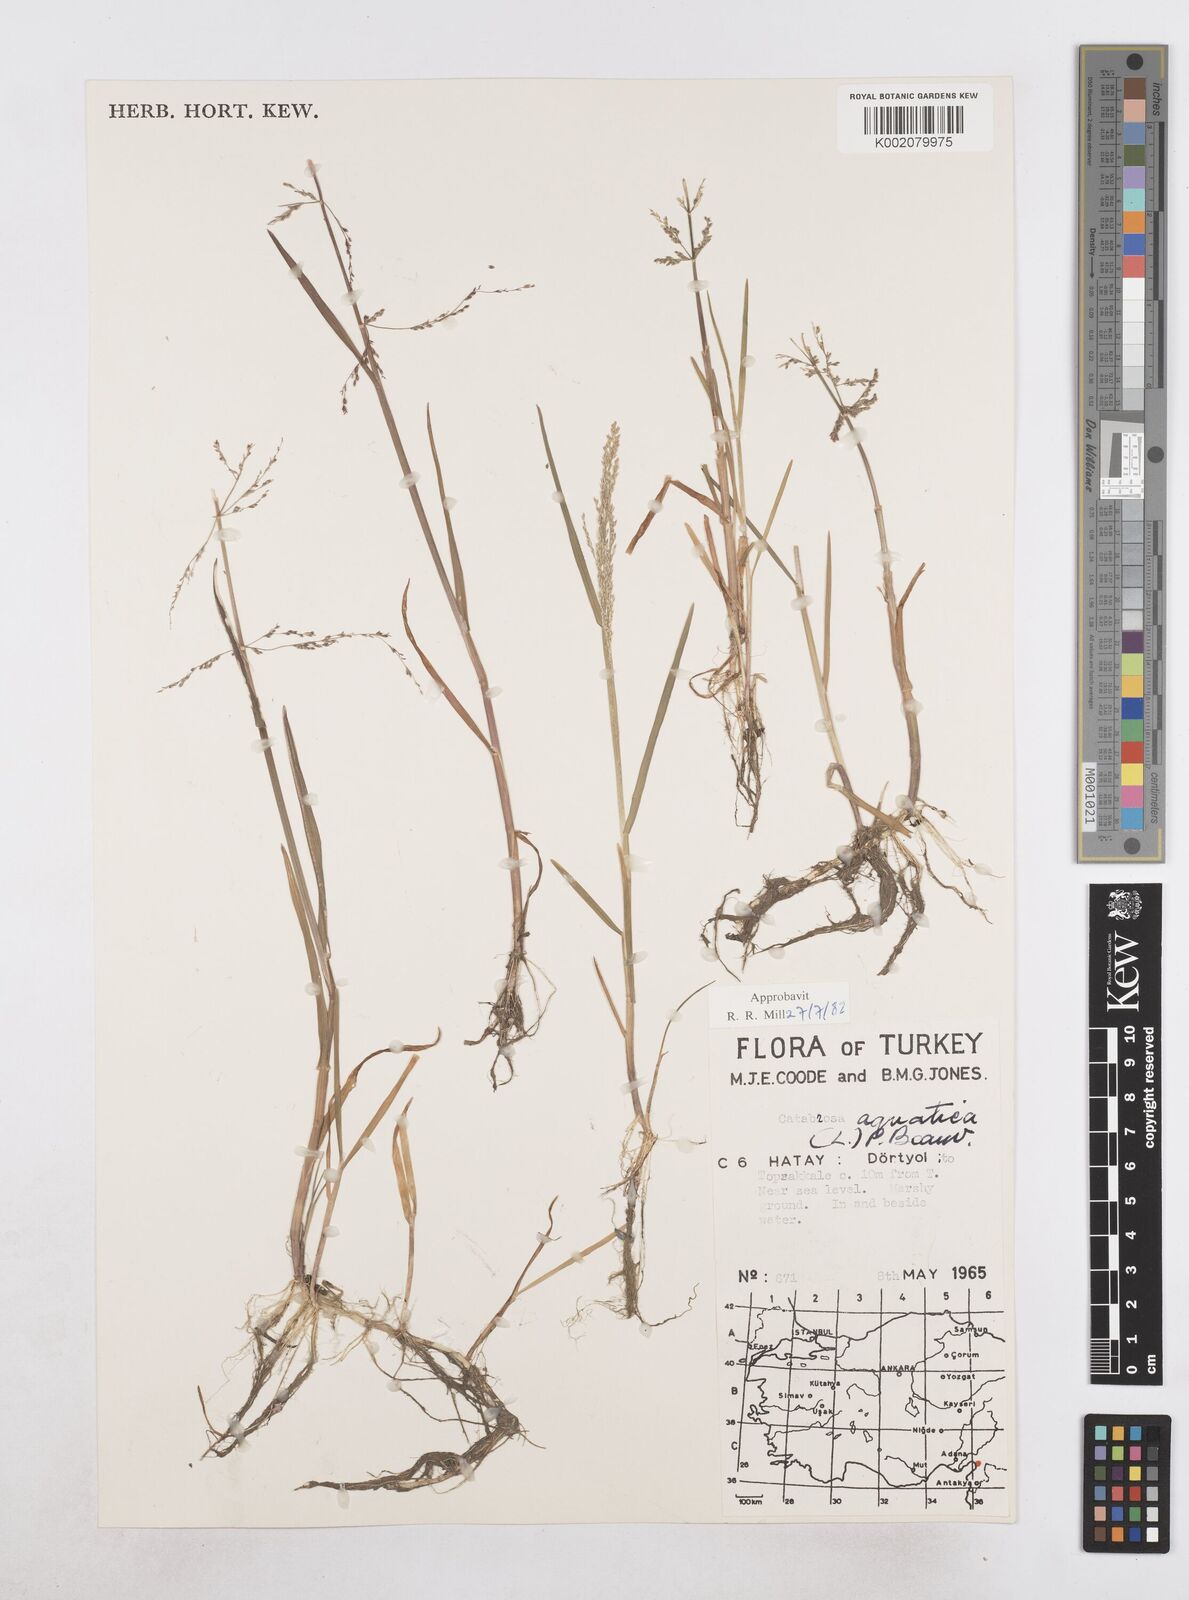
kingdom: Plantae
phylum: Tracheophyta
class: Liliopsida
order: Poales
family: Poaceae
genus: Catabrosa
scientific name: Catabrosa aquatica
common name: Whorl-grass
